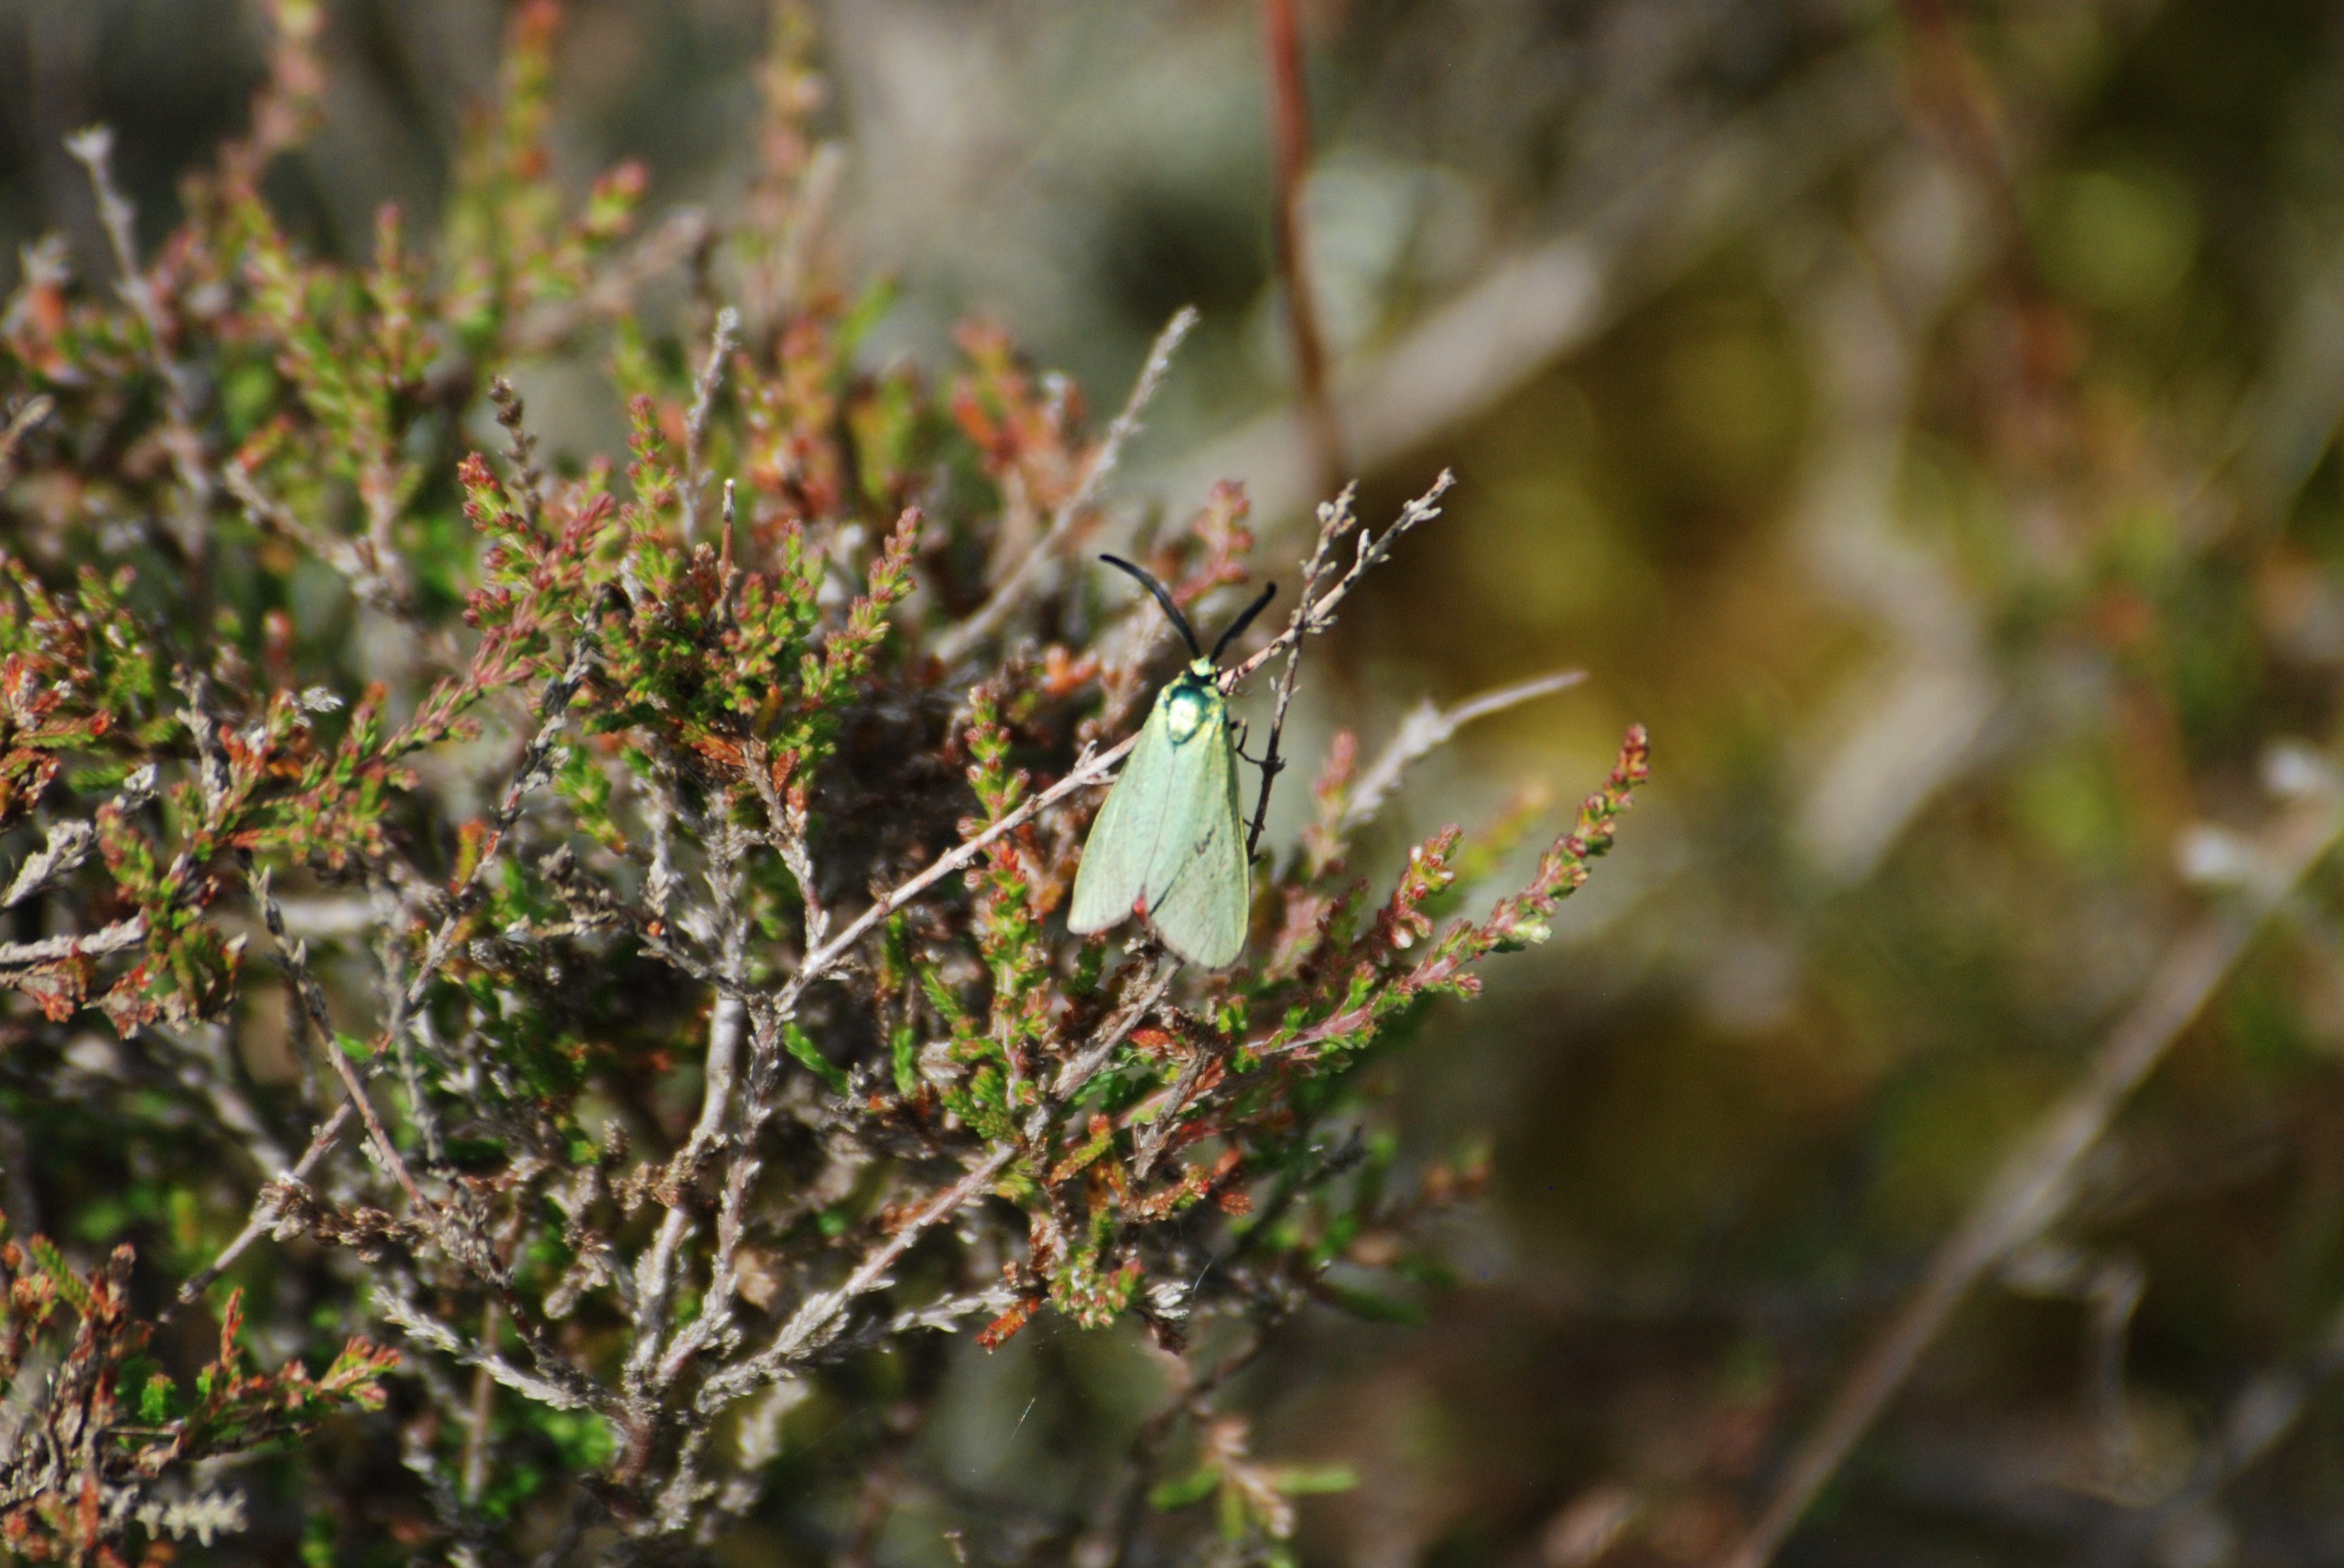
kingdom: Animalia
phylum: Arthropoda
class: Insecta
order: Lepidoptera
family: Zygaenidae
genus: Adscita
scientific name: Adscita statices
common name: Metalvinge
